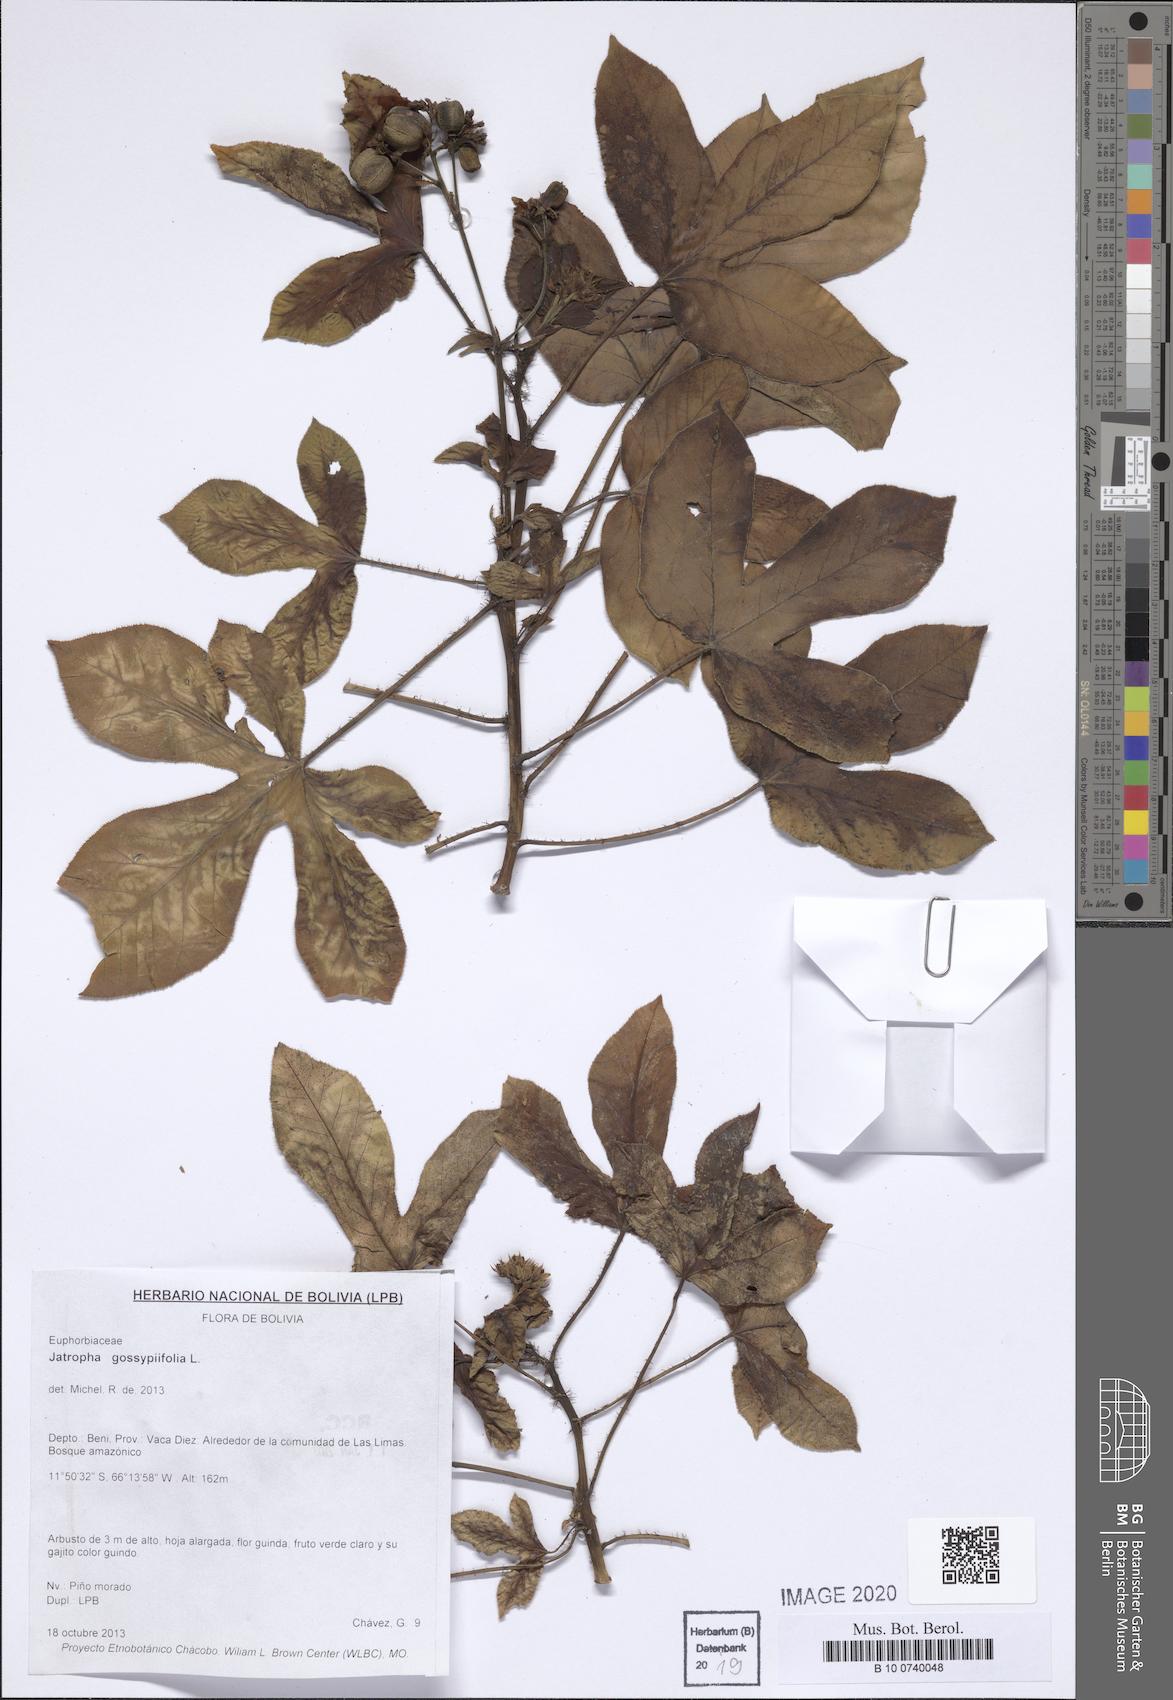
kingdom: Plantae
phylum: Tracheophyta
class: Magnoliopsida
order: Malpighiales
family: Euphorbiaceae
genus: Jatropha
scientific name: Jatropha gossypiifolia
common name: Bellyache bush
